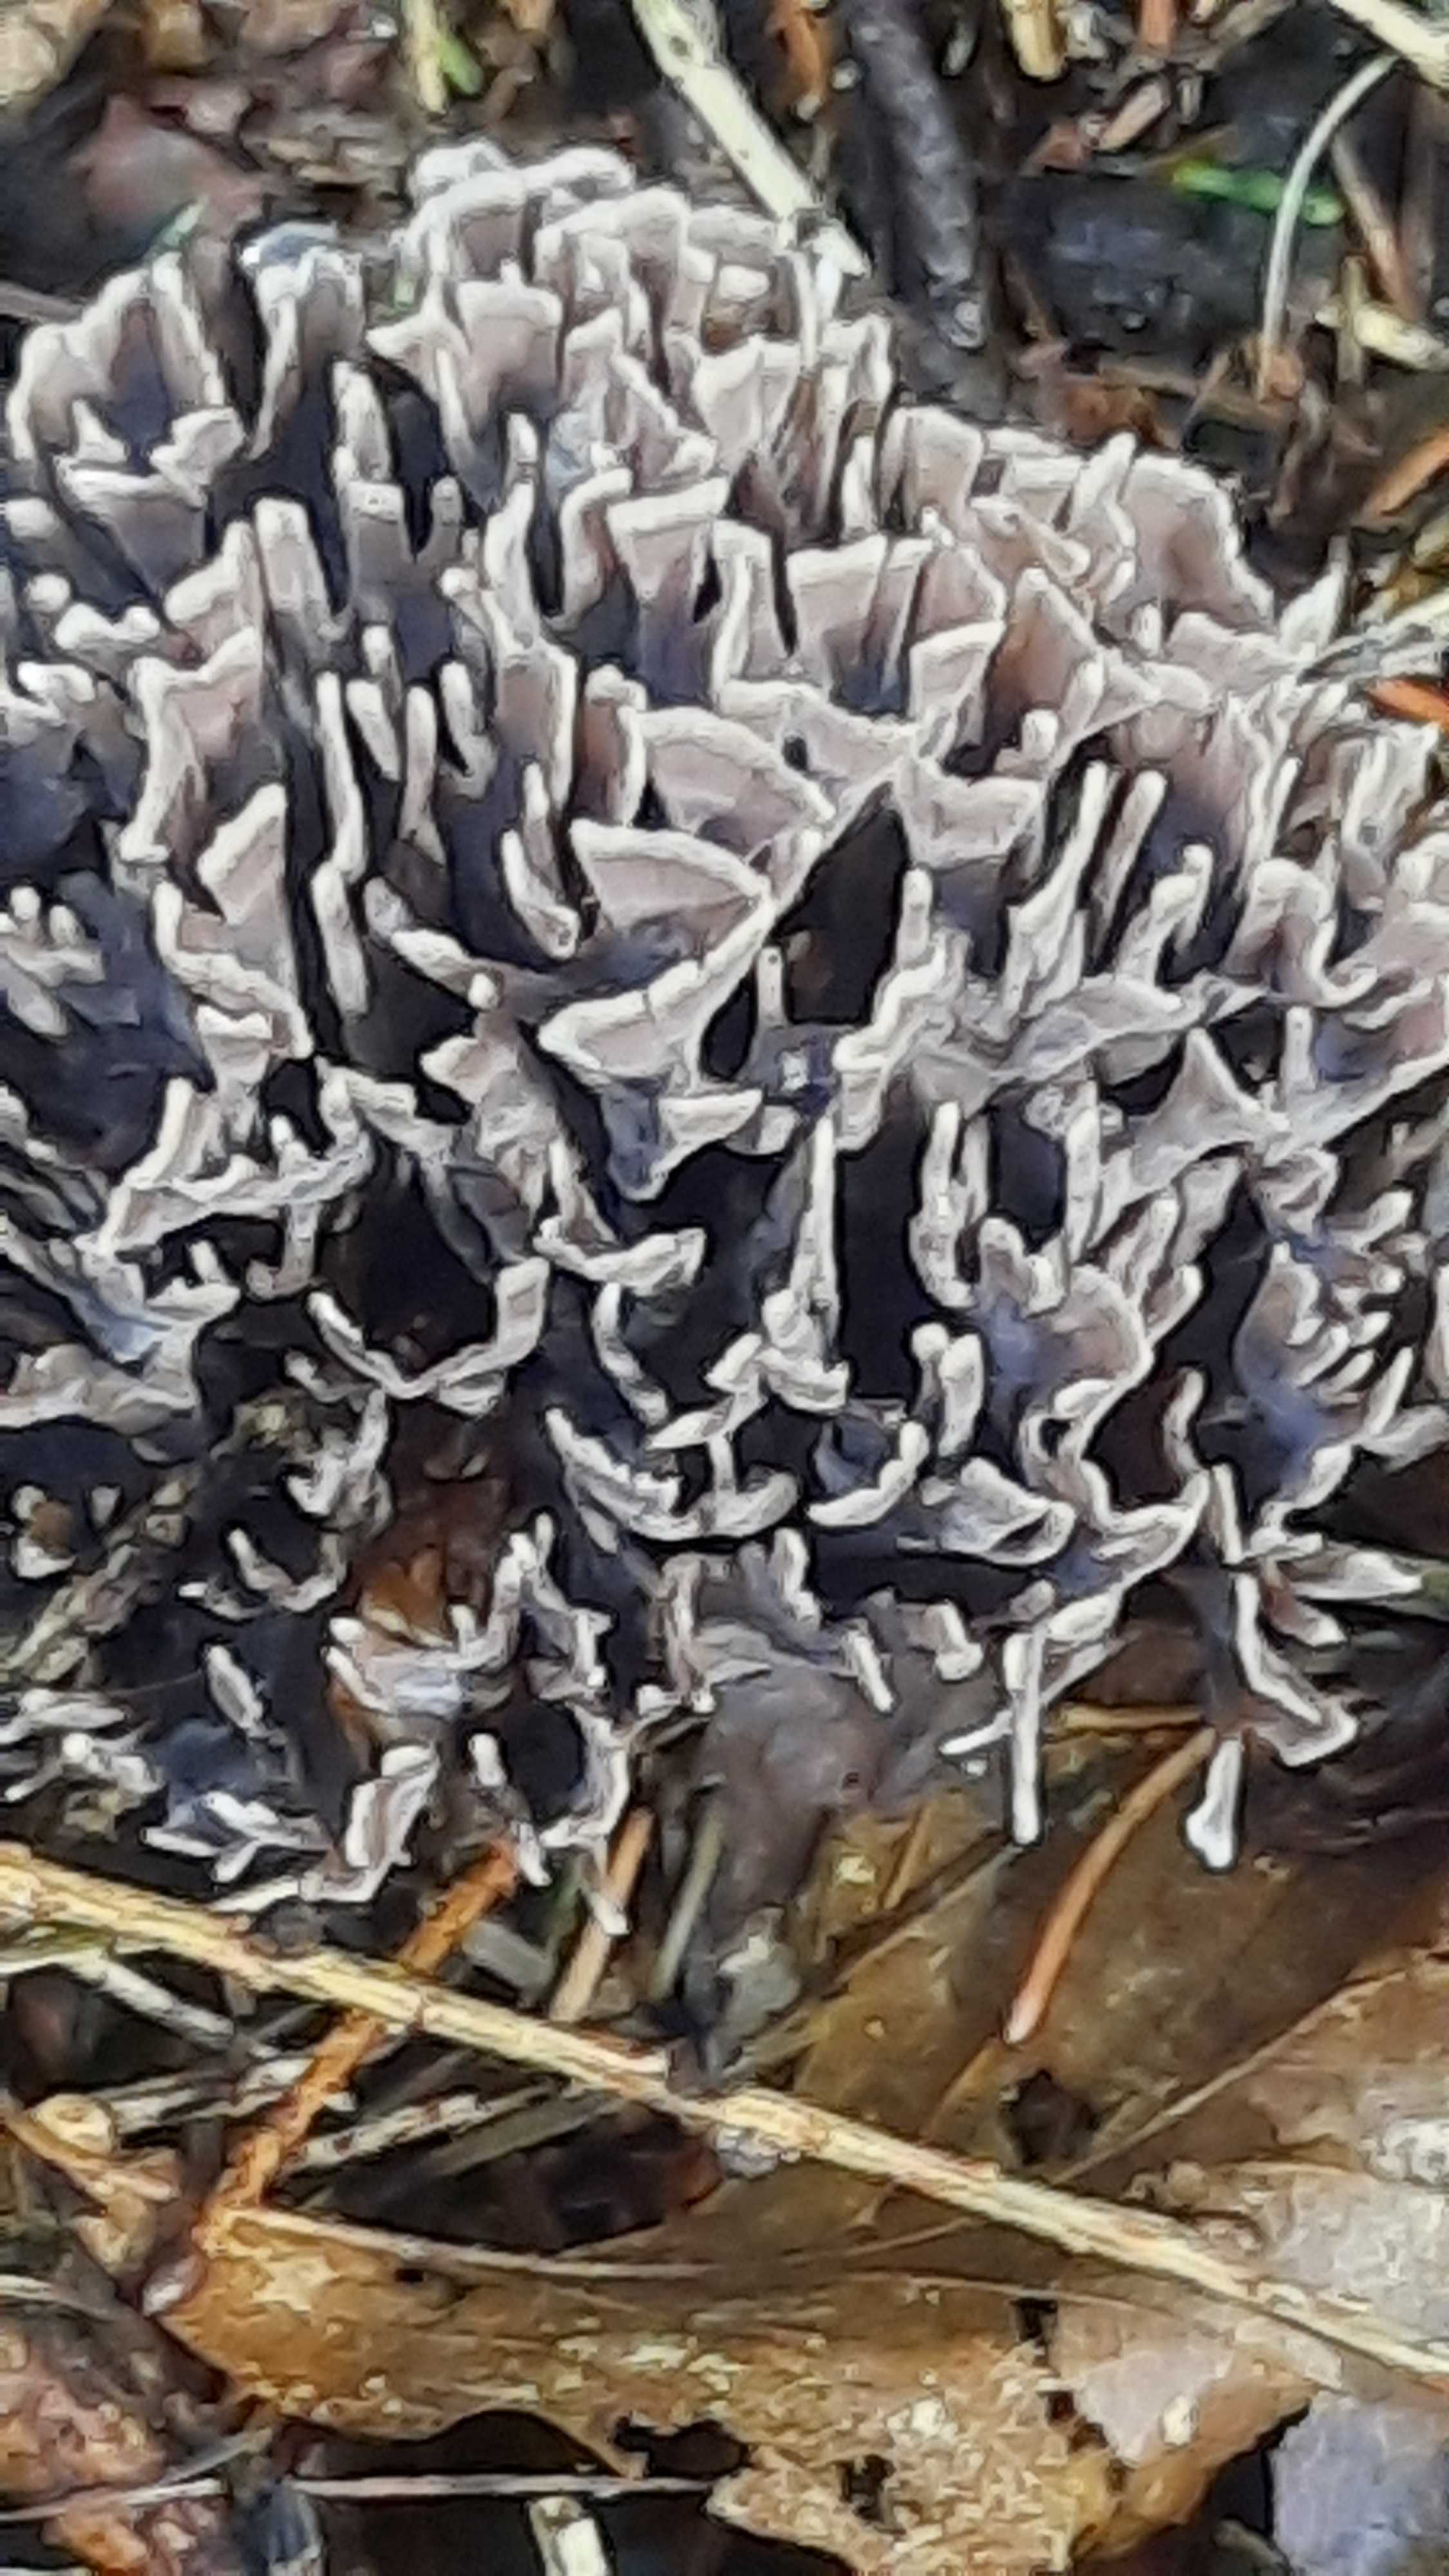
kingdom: Fungi
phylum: Basidiomycota
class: Agaricomycetes
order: Thelephorales
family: Thelephoraceae
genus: Thelephora
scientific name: Thelephora palmata
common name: grenet frynsesvamp
